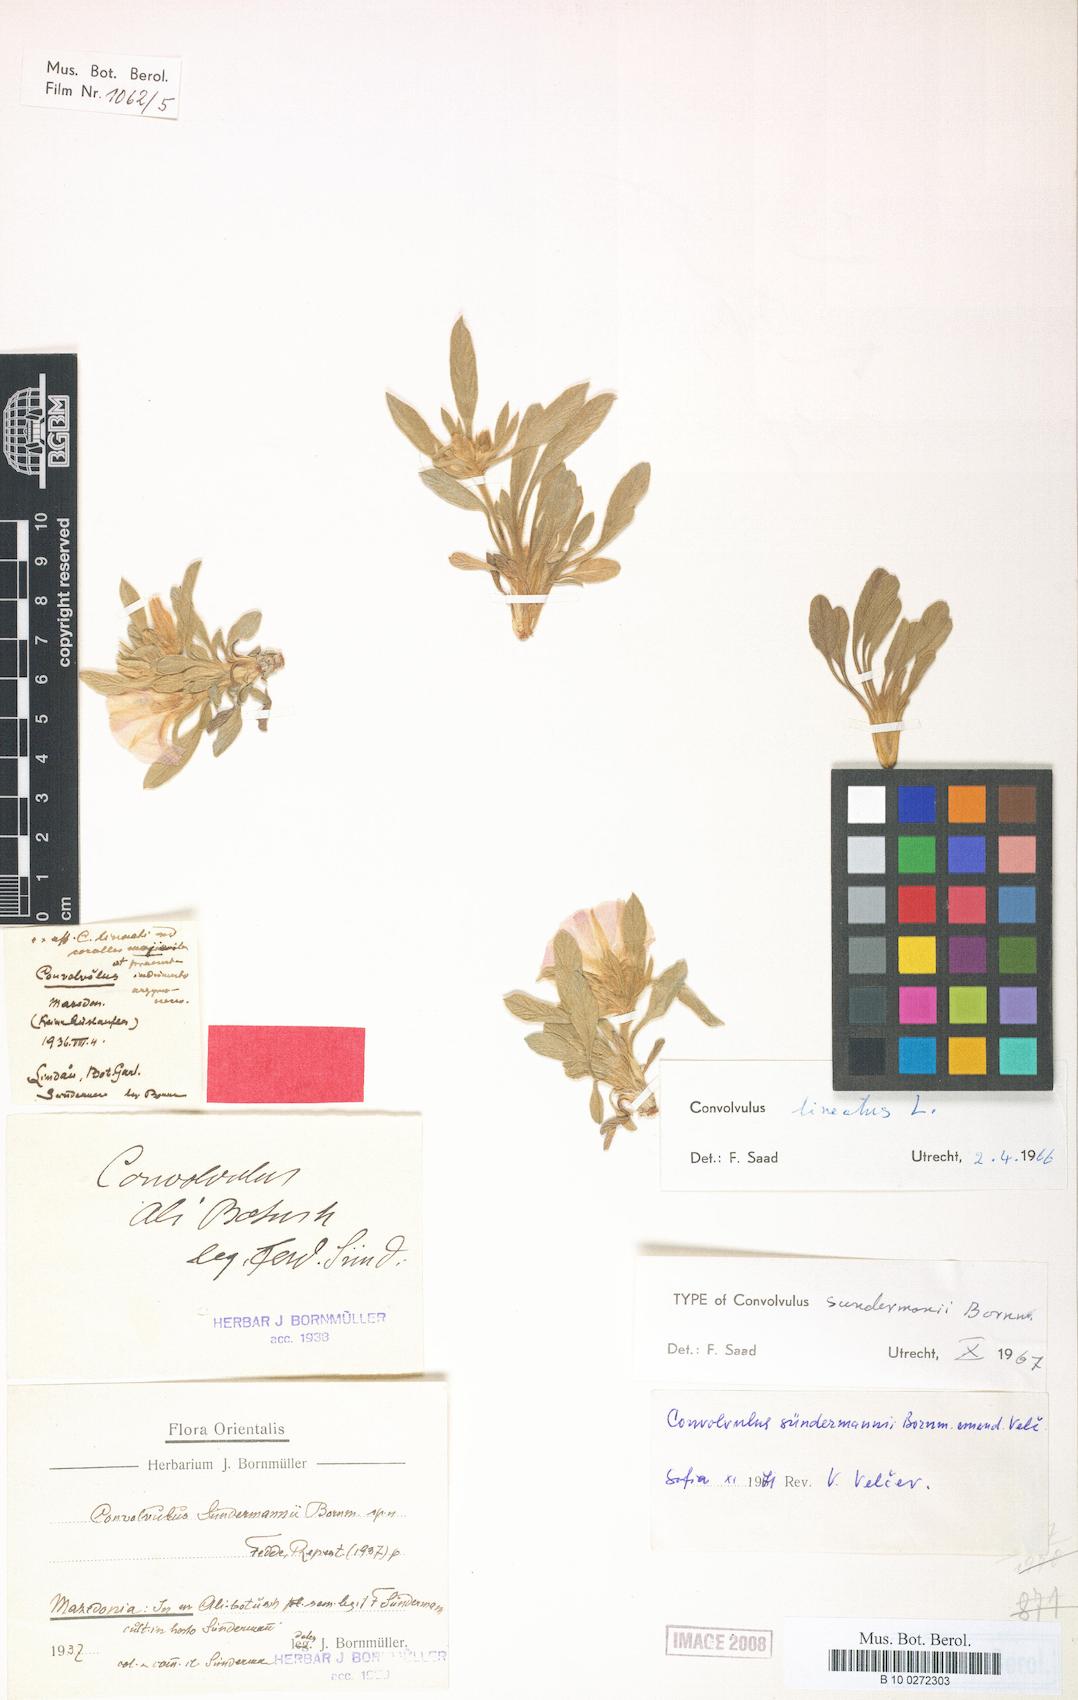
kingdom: Plantae
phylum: Tracheophyta
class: Magnoliopsida
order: Solanales
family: Convolvulaceae
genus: Convolvulus
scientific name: Convolvulus lineatus
